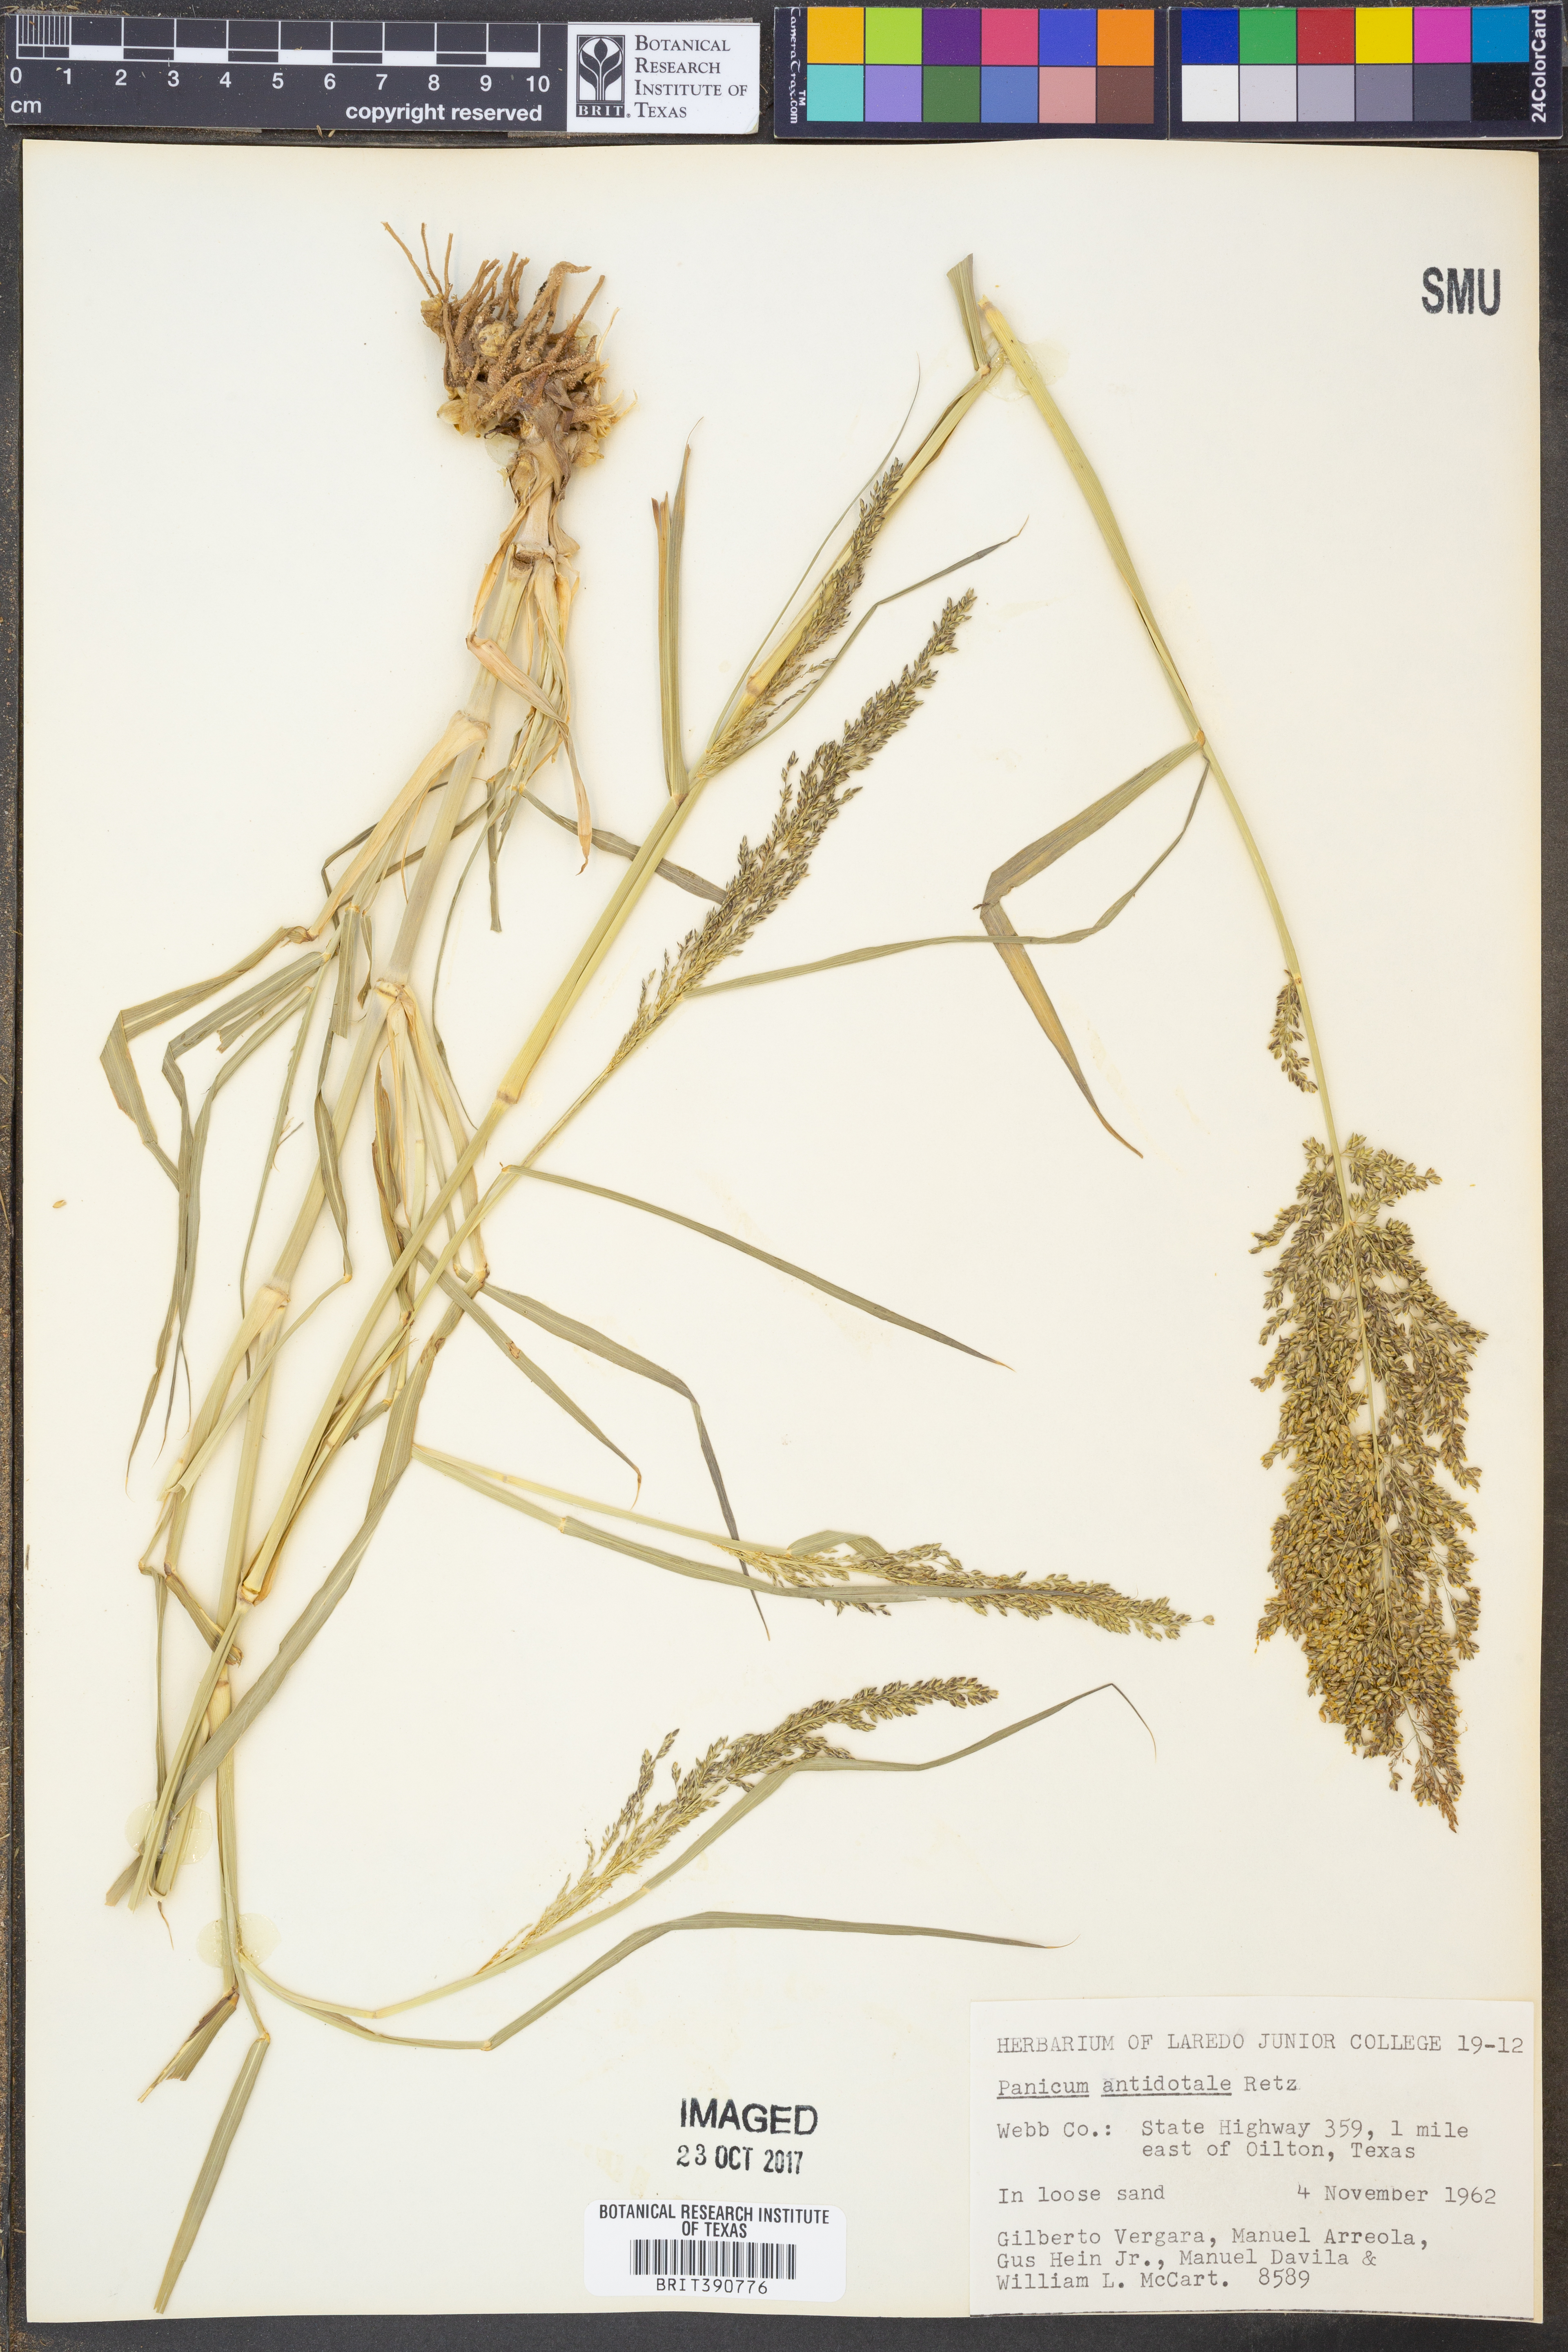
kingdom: Plantae
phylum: Tracheophyta
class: Liliopsida
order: Poales
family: Poaceae
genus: Panicum
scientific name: Panicum antidotale
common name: Blue panicum
